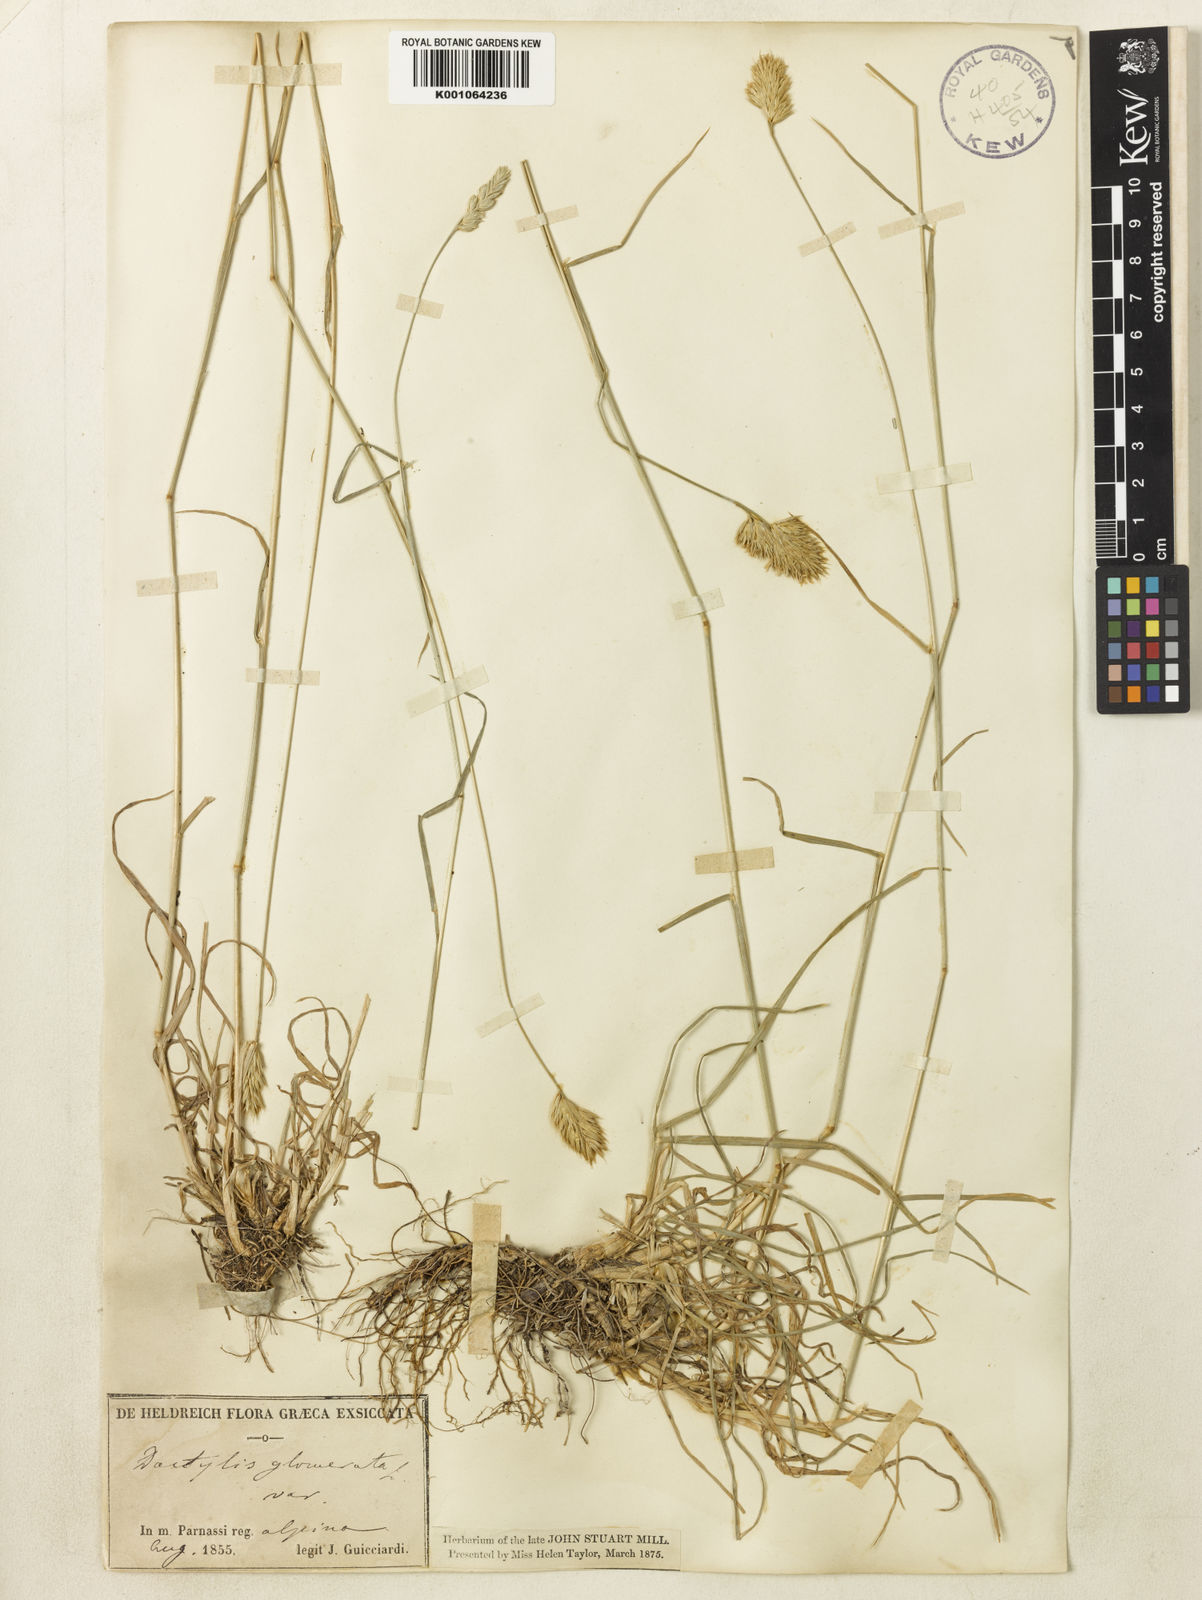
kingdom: Plantae
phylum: Tracheophyta
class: Liliopsida
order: Poales
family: Poaceae
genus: Dactylis
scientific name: Dactylis glomerata
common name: Orchardgrass
